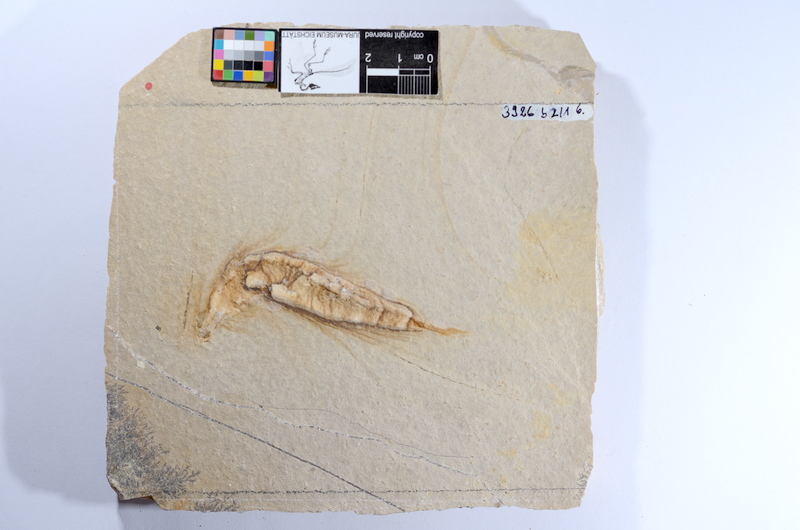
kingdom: Animalia
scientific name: Animalia
